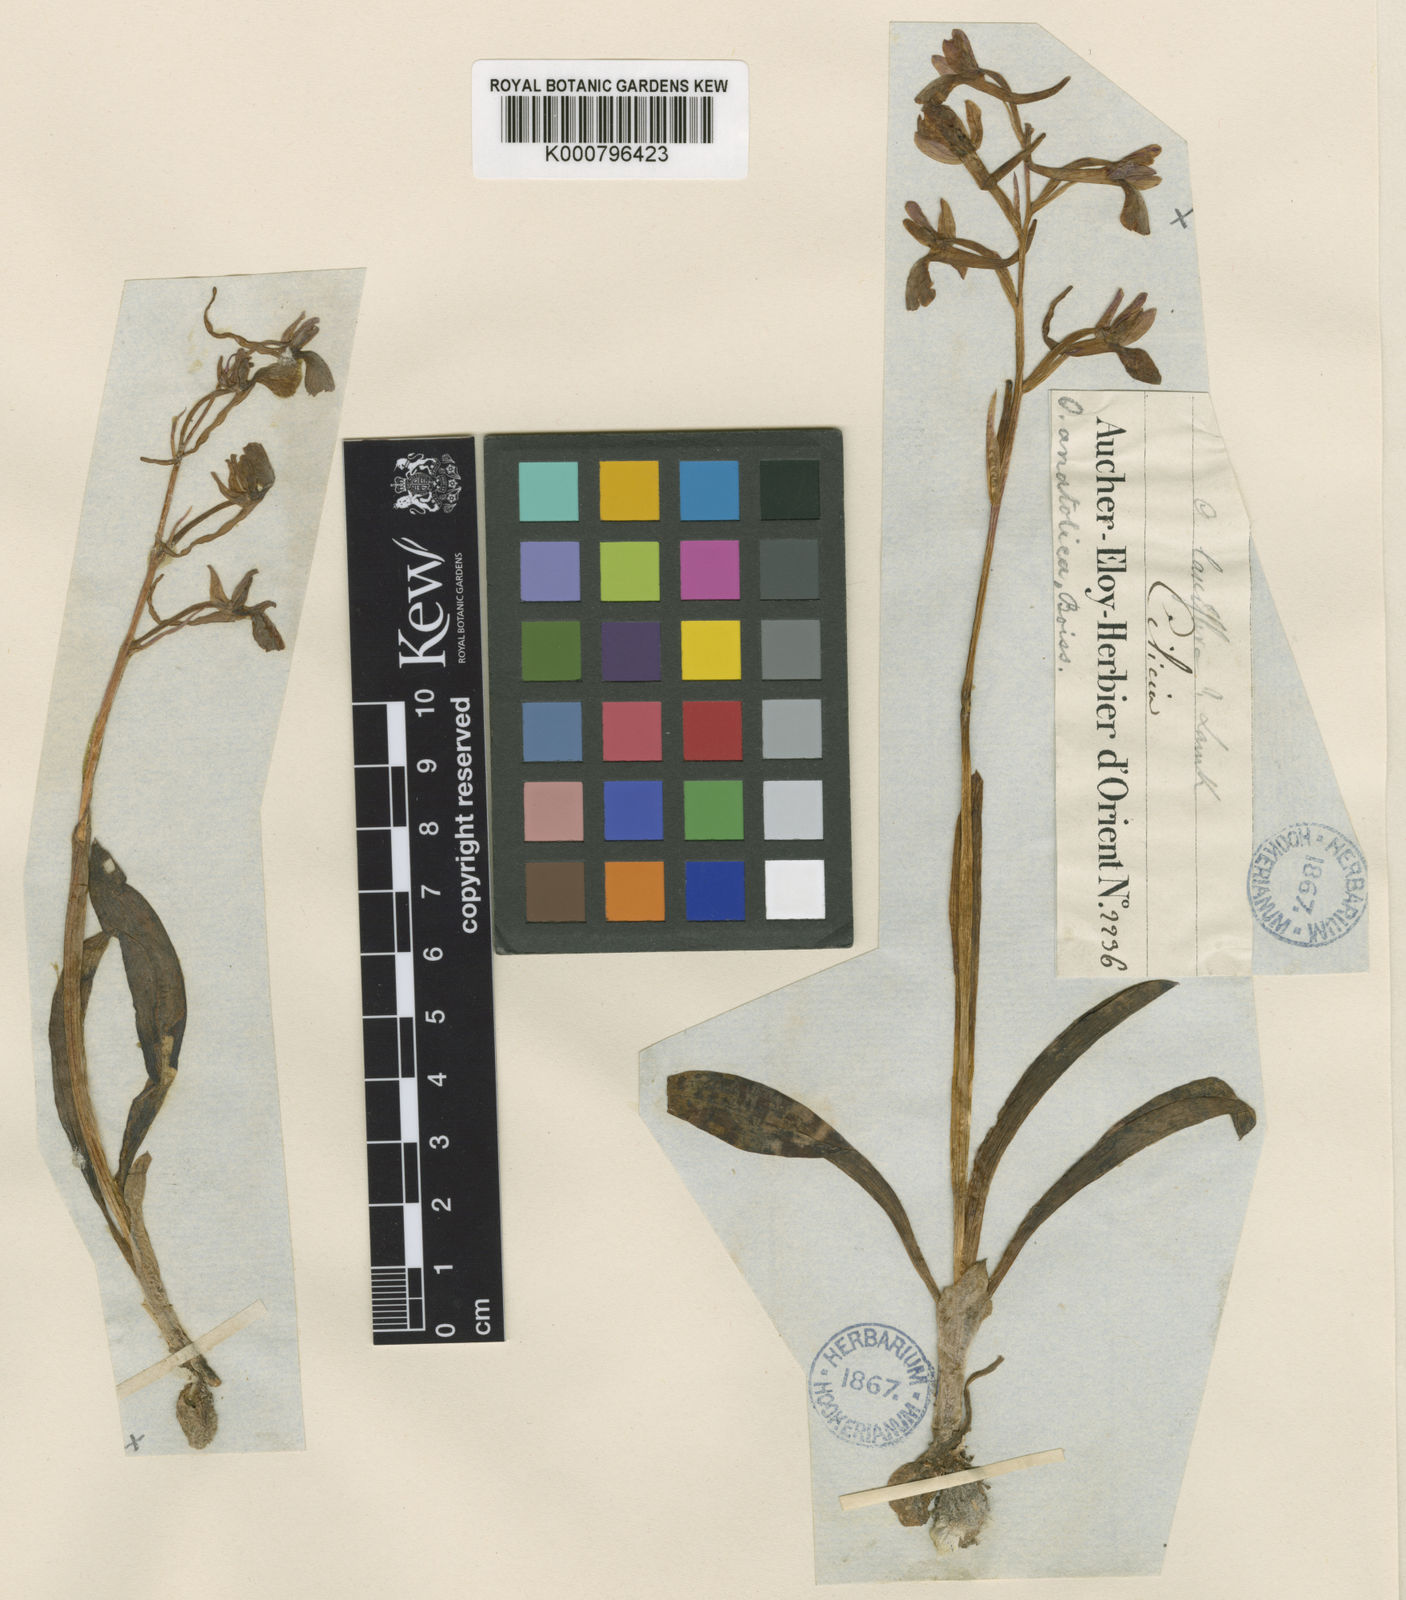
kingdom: Plantae
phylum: Tracheophyta
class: Liliopsida
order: Asparagales
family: Orchidaceae
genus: Orchis
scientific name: Orchis anatolica
